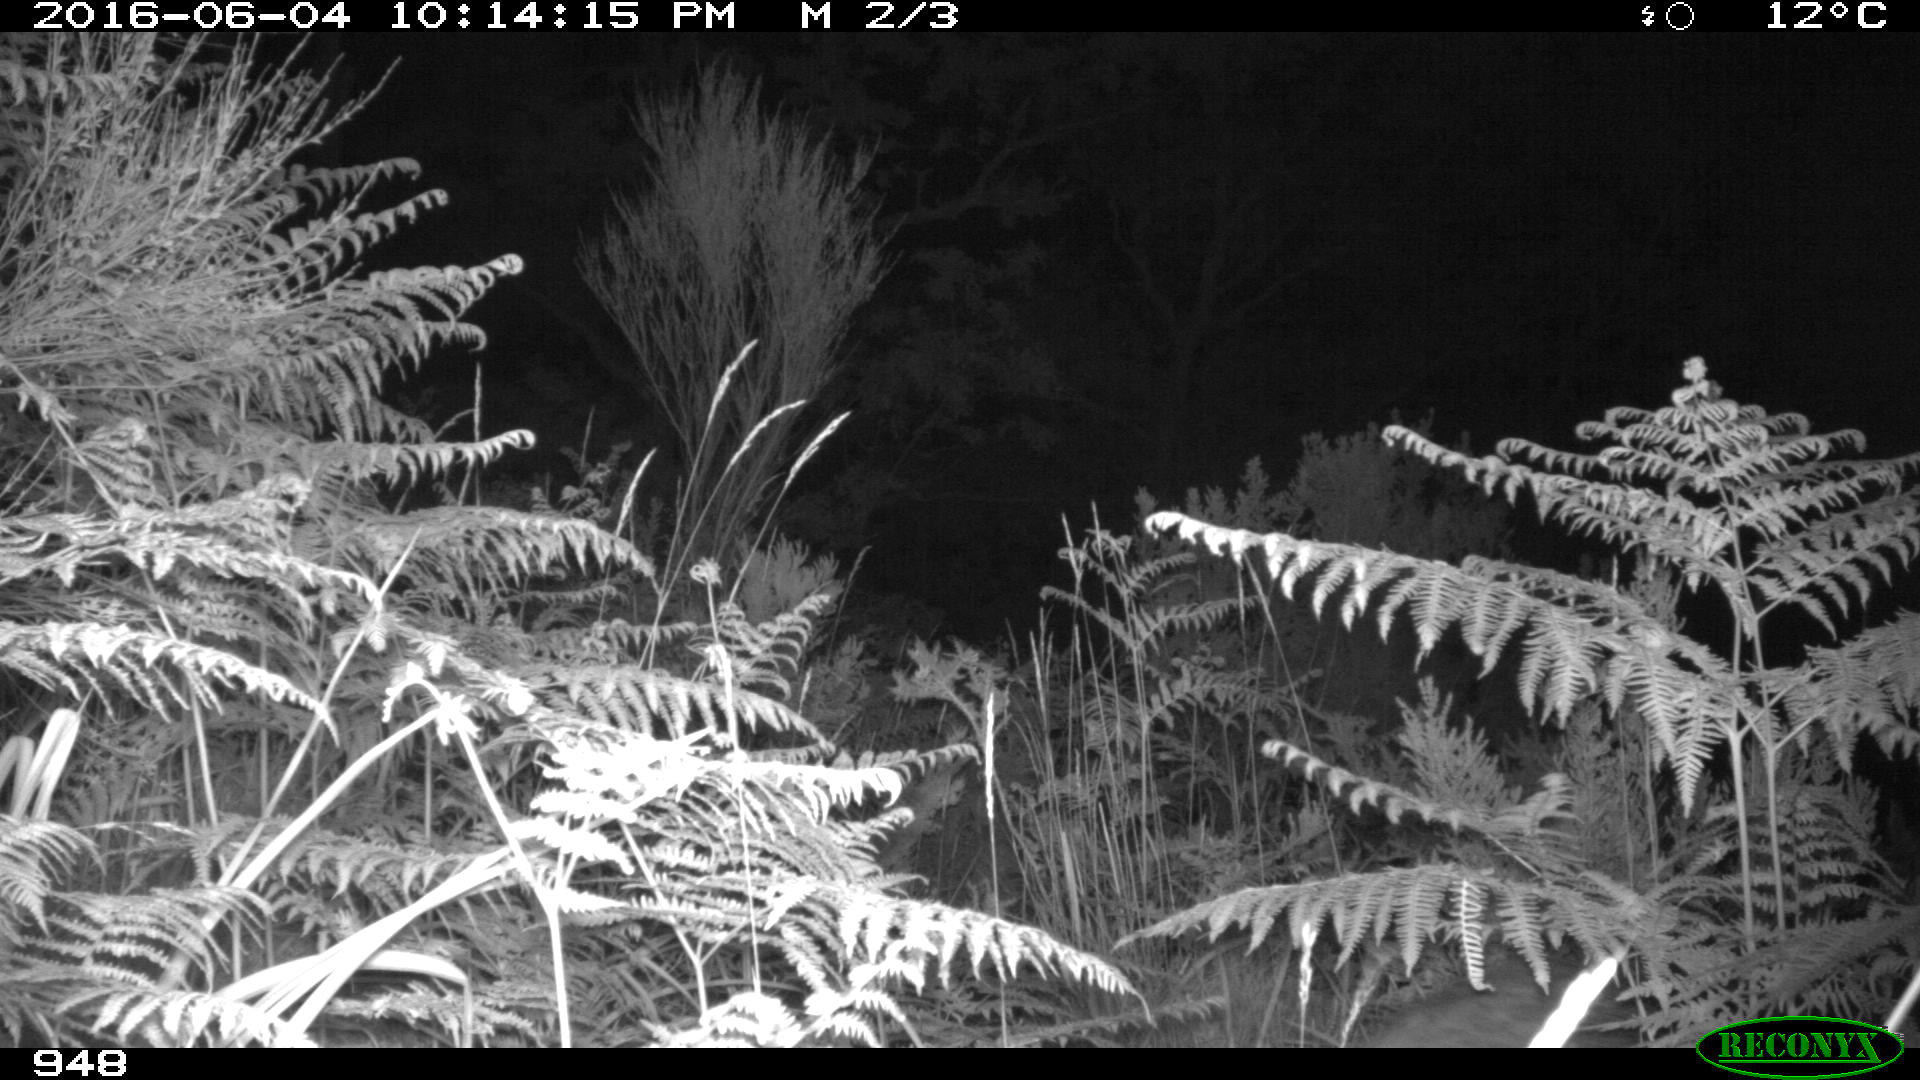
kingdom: Animalia
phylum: Chordata
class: Mammalia
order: Artiodactyla
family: Suidae
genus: Sus
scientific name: Sus scrofa
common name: Wild boar
